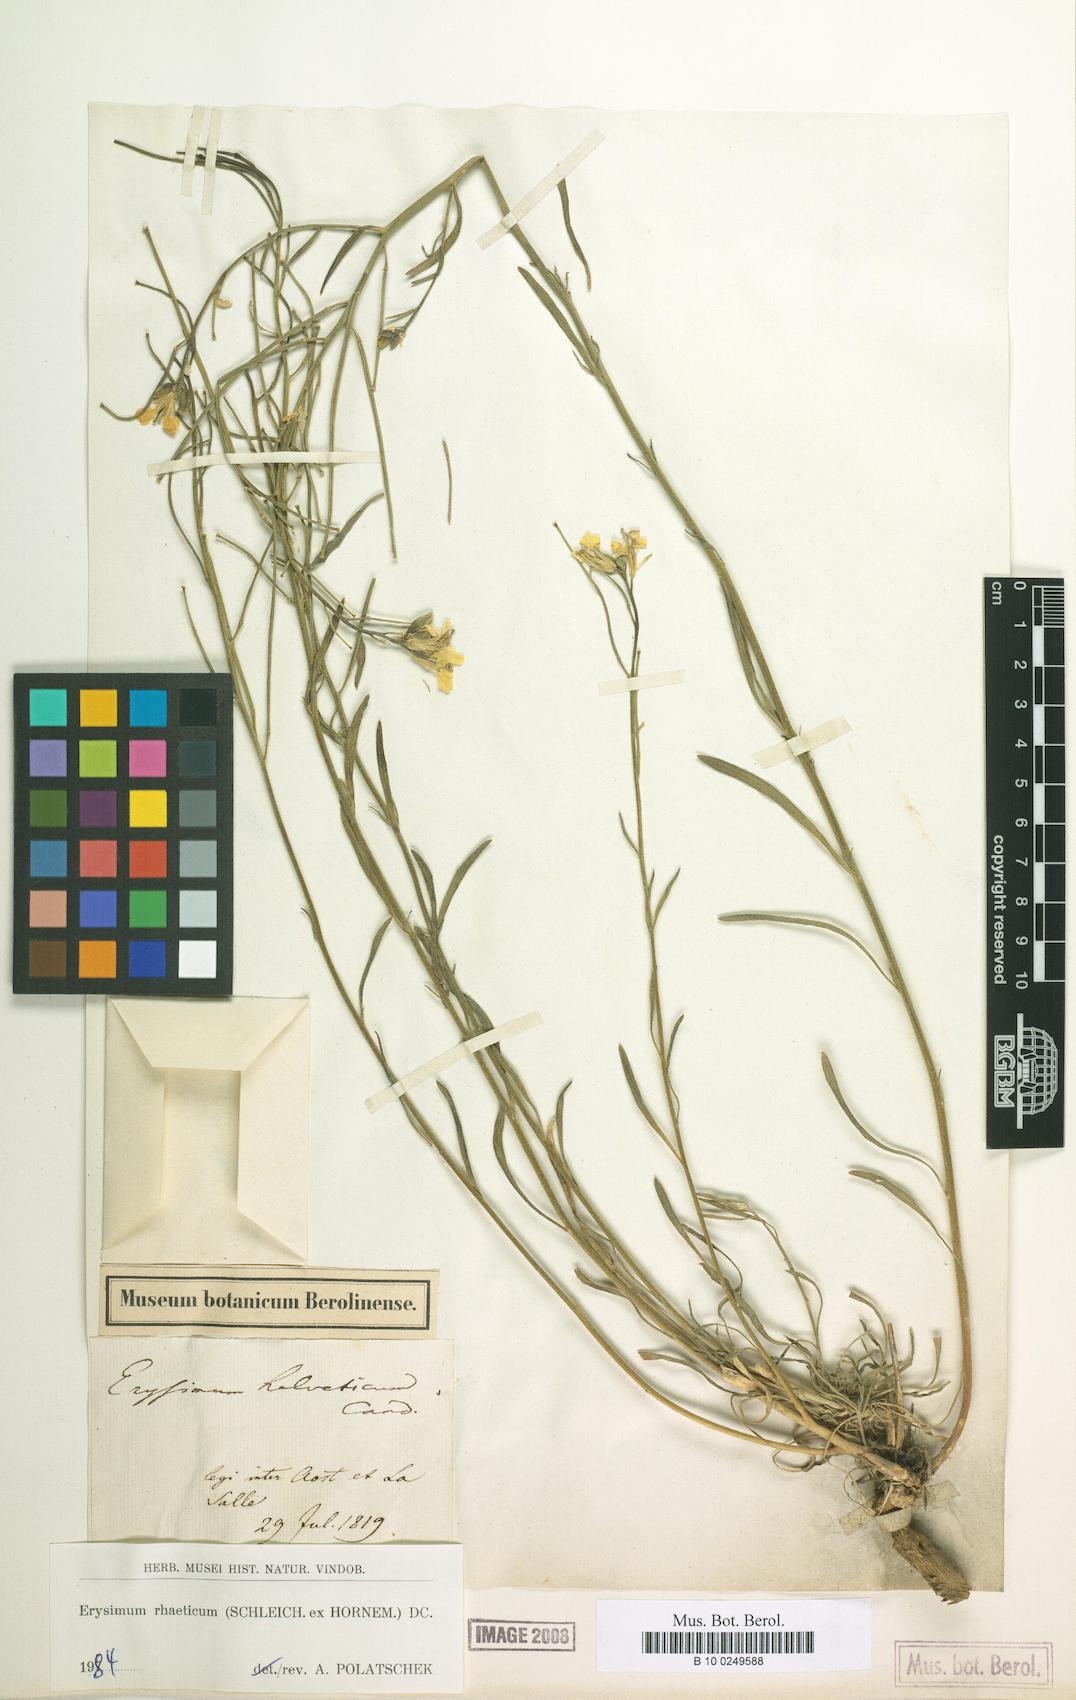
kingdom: Plantae
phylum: Tracheophyta
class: Magnoliopsida
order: Brassicales
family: Brassicaceae
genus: Erysimum
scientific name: Erysimum rhaeticum
